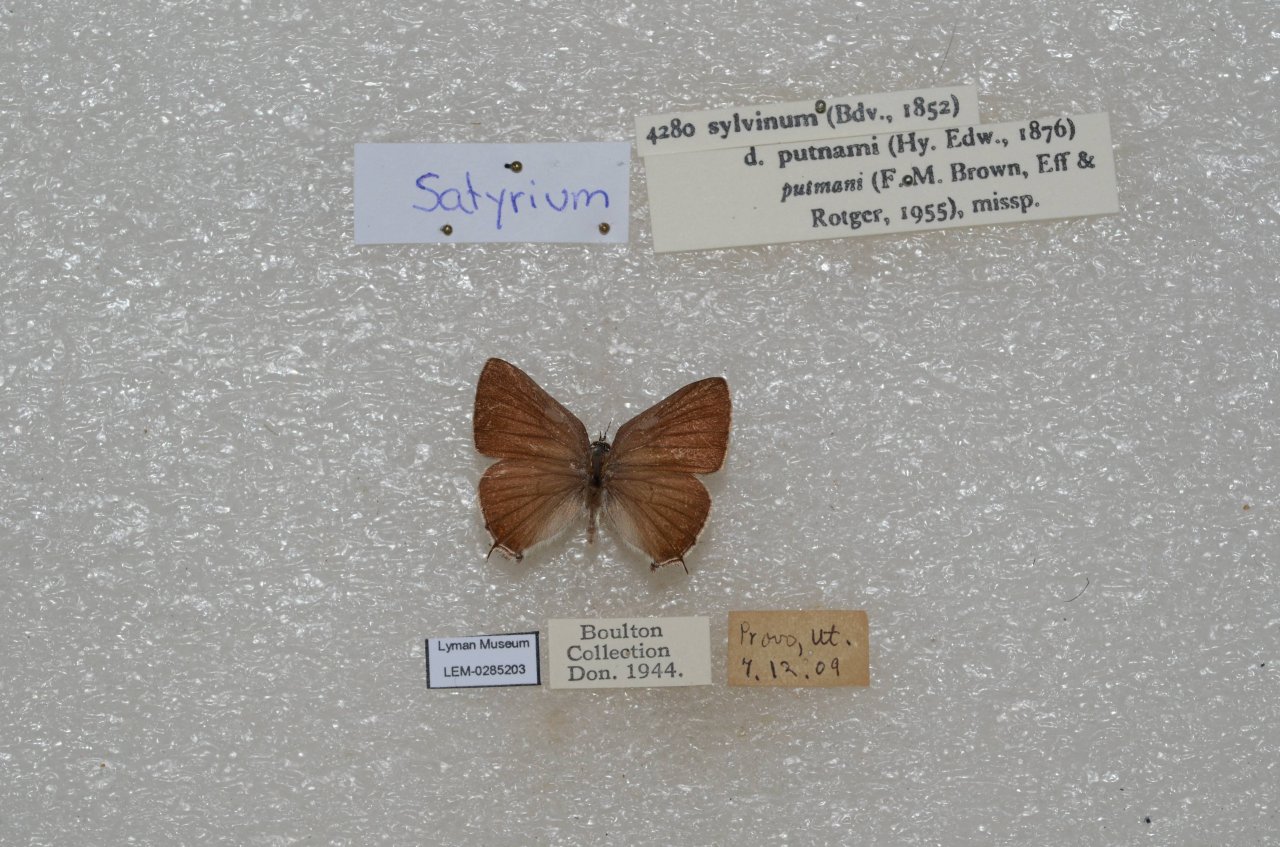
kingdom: Animalia
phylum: Arthropoda
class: Insecta
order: Lepidoptera
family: Lycaenidae
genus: Strymon
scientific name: Strymon acadica
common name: California Hairstreak
